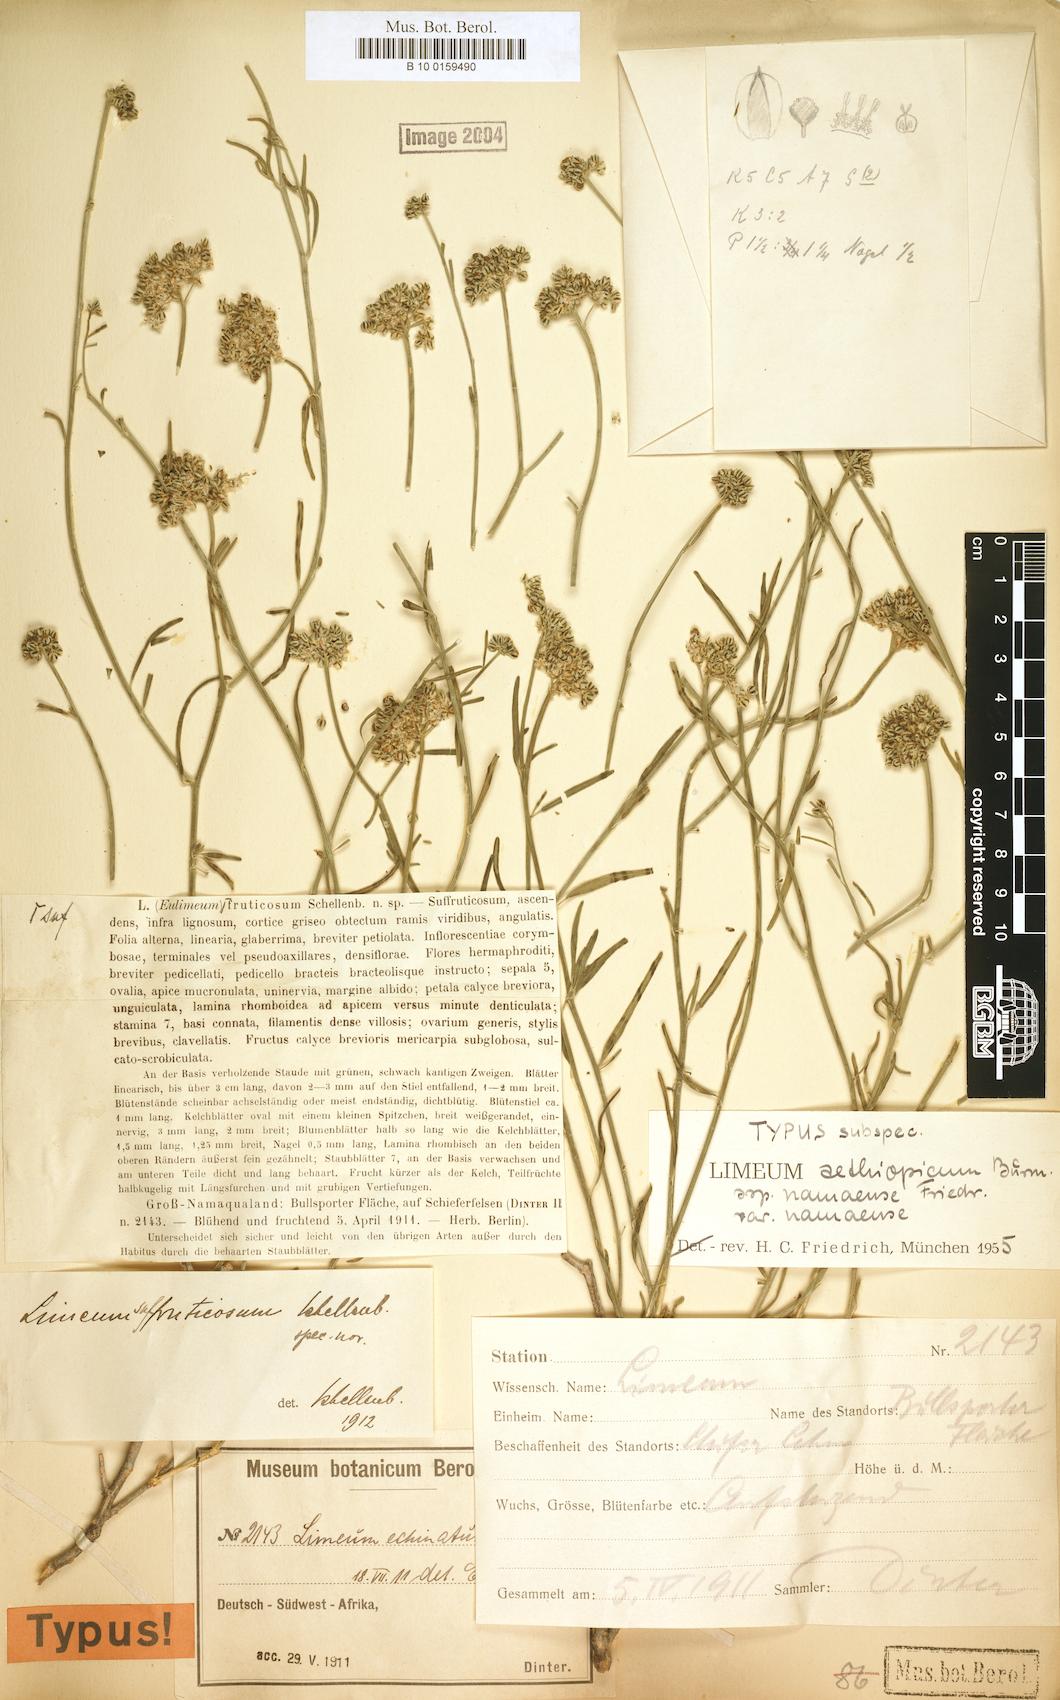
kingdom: Plantae
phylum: Tracheophyta
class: Magnoliopsida
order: Caryophyllales
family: Limeaceae
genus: Limeum
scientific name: Limeum aethiopicum
